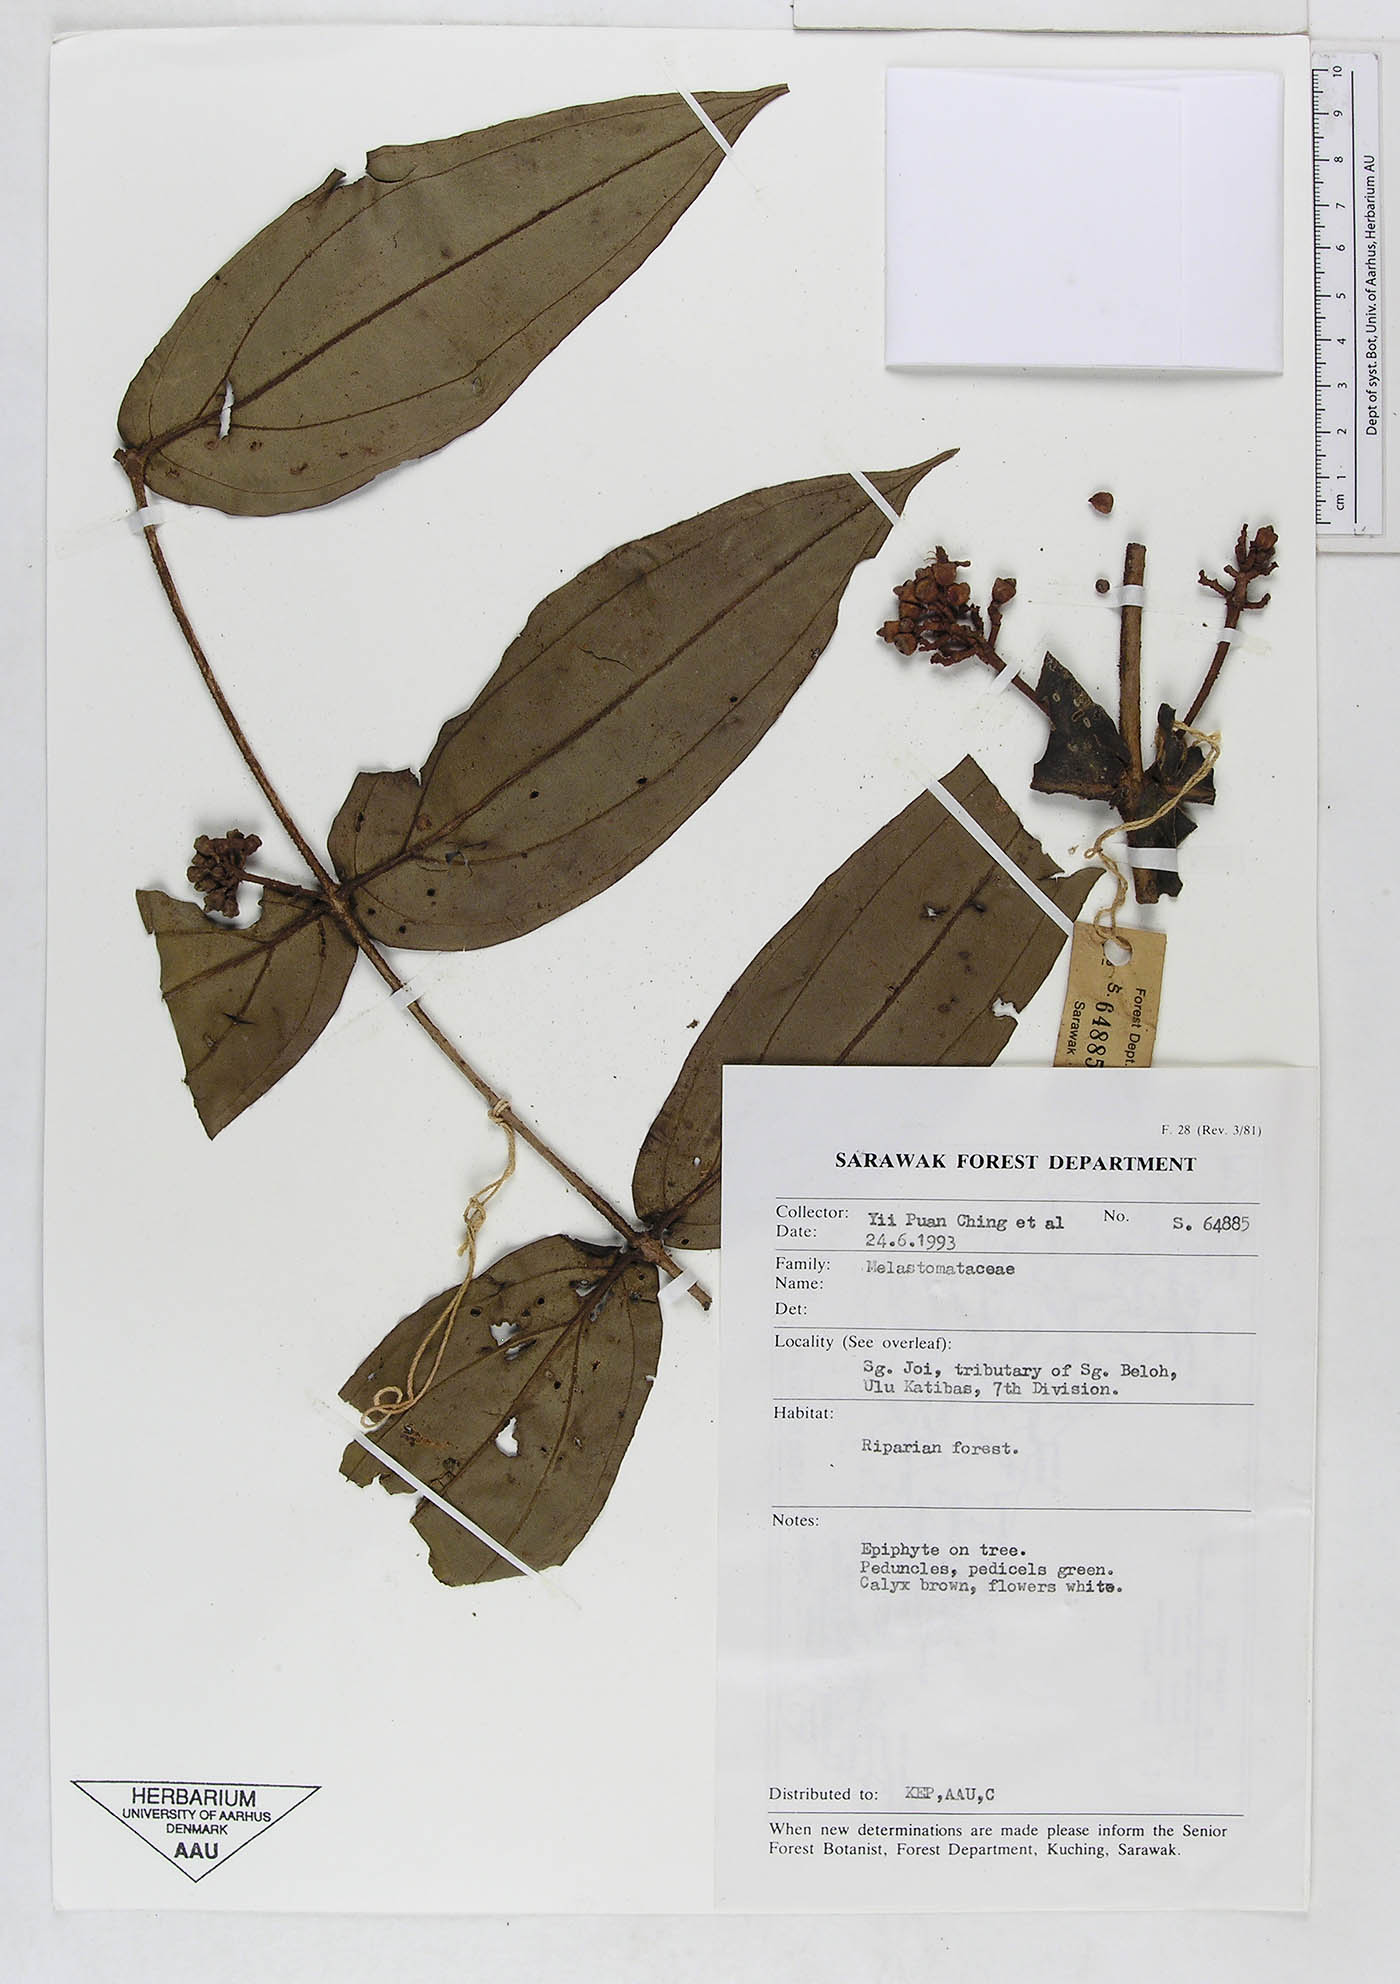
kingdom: Plantae
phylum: Tracheophyta
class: Magnoliopsida
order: Myrtales
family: Melastomataceae
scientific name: Melastomataceae
